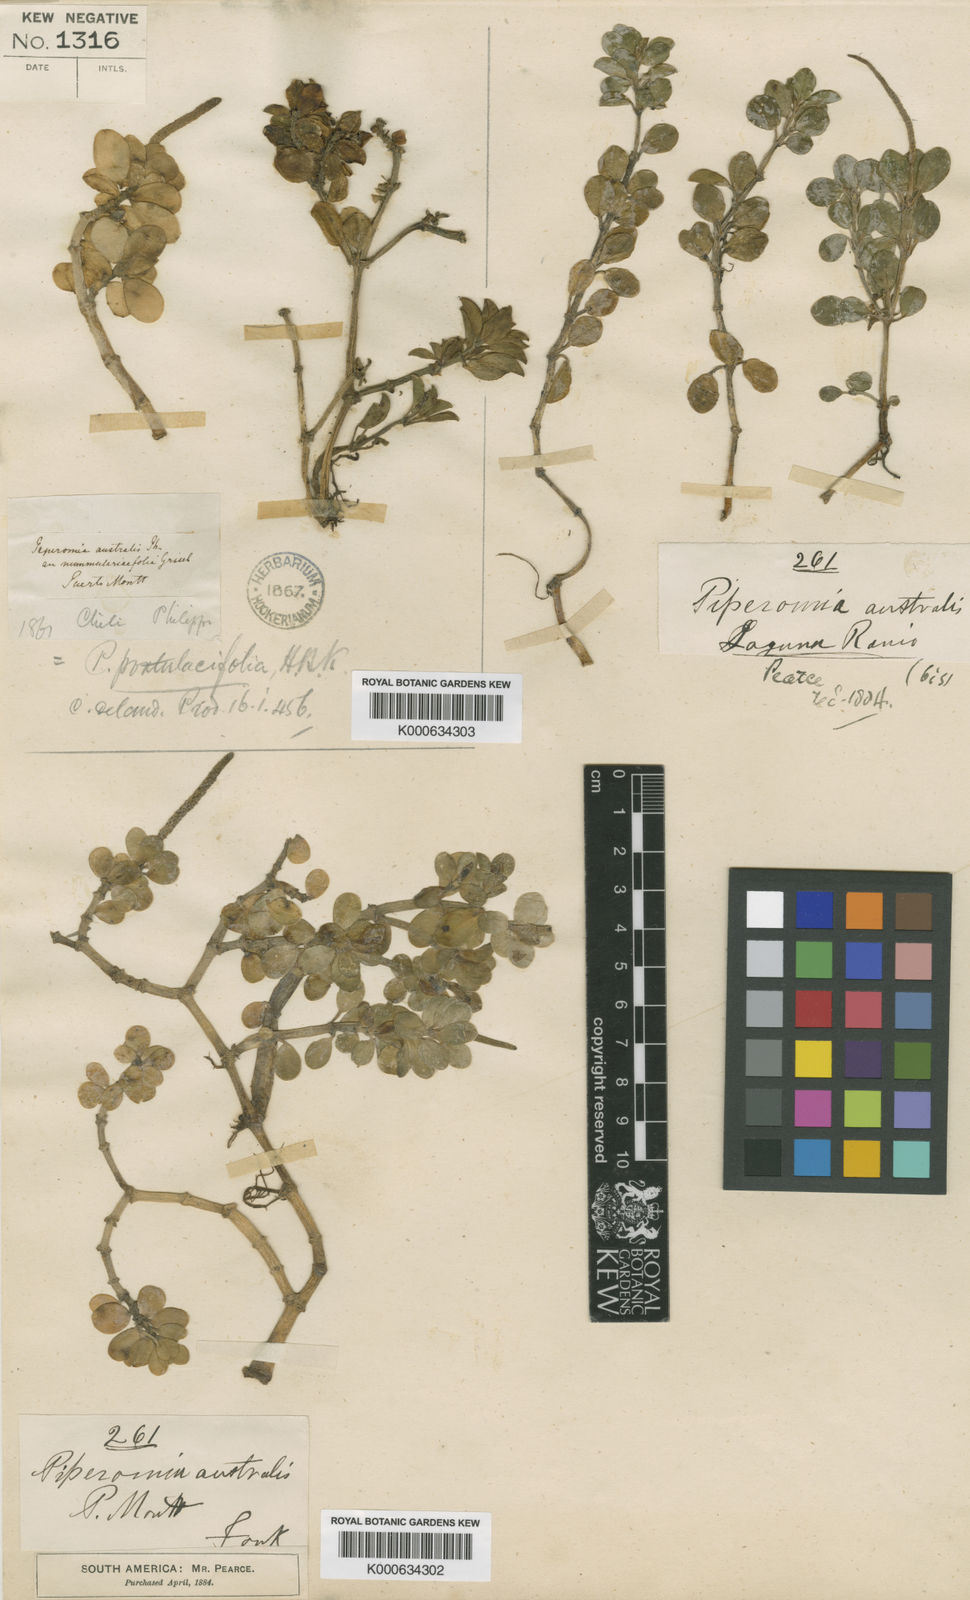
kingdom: Plantae
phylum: Tracheophyta
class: Magnoliopsida
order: Piperales
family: Piperaceae
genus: Peperomia
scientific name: Peperomia nummularioides
